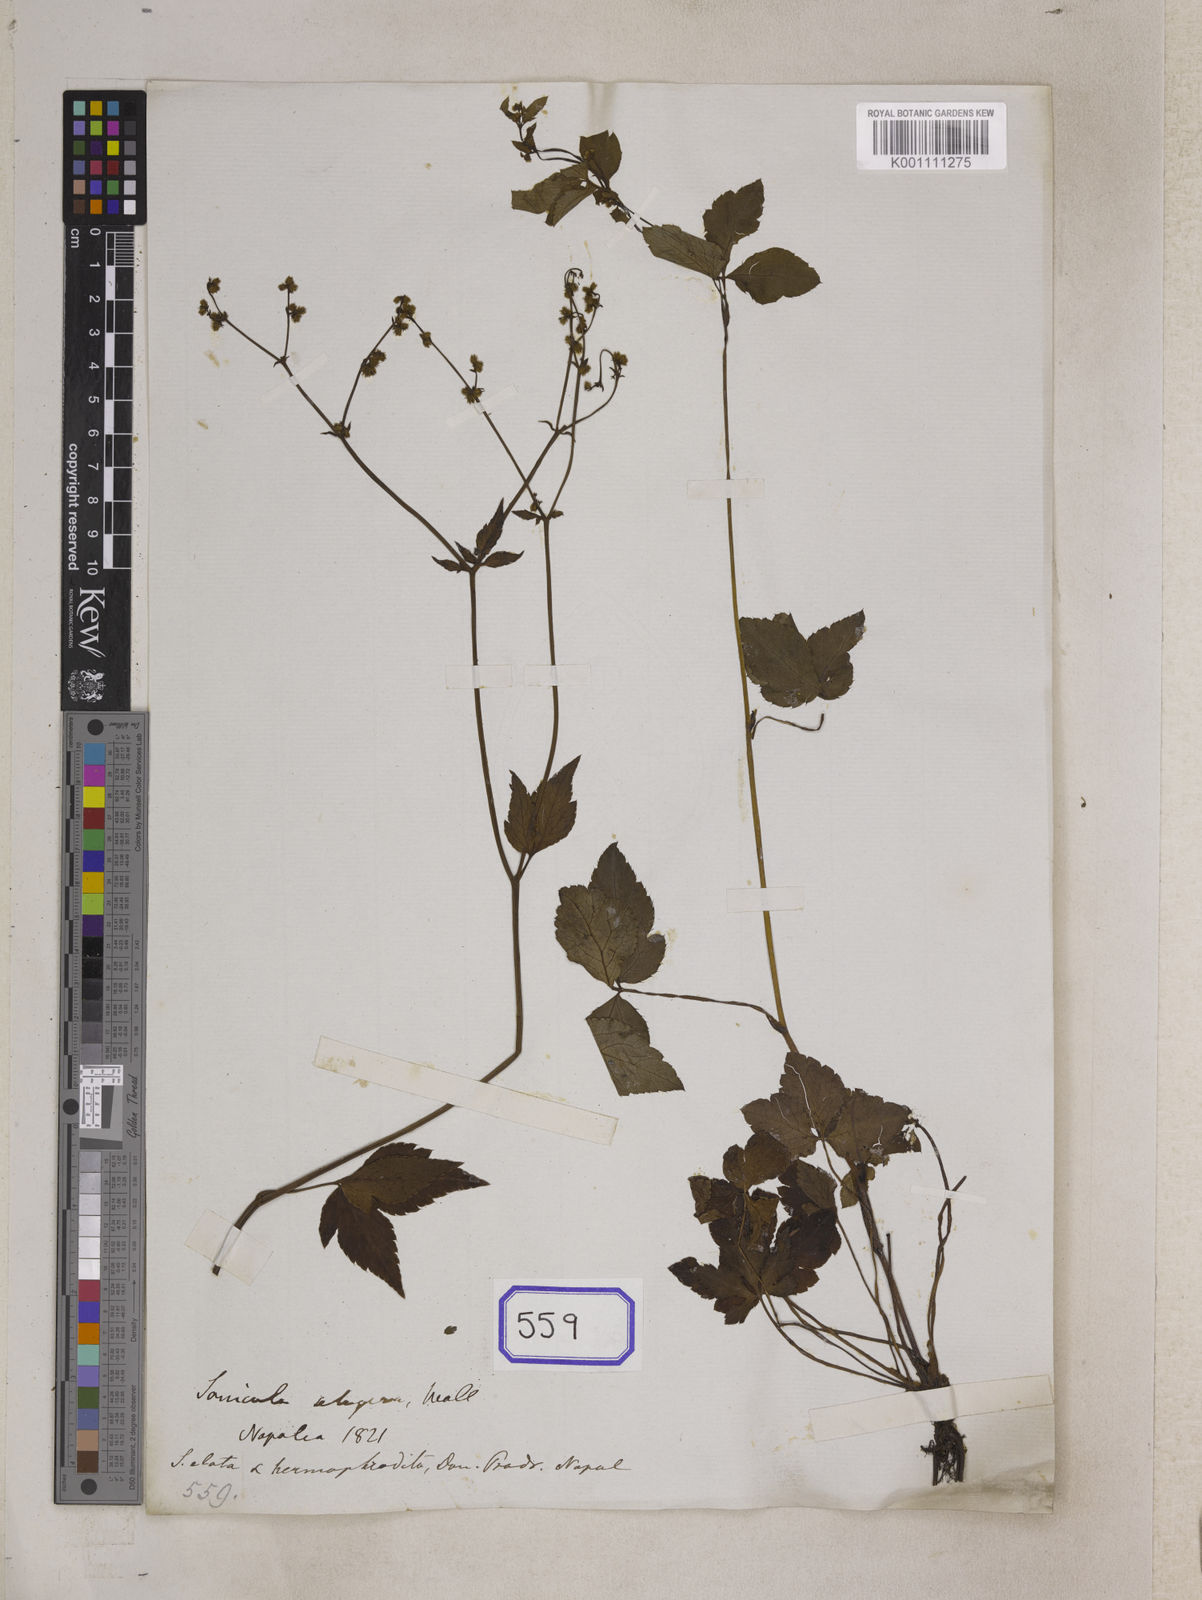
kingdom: Plantae
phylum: Tracheophyta
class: Magnoliopsida
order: Apiales
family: Apiaceae
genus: Sanicula
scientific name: Sanicula elata
